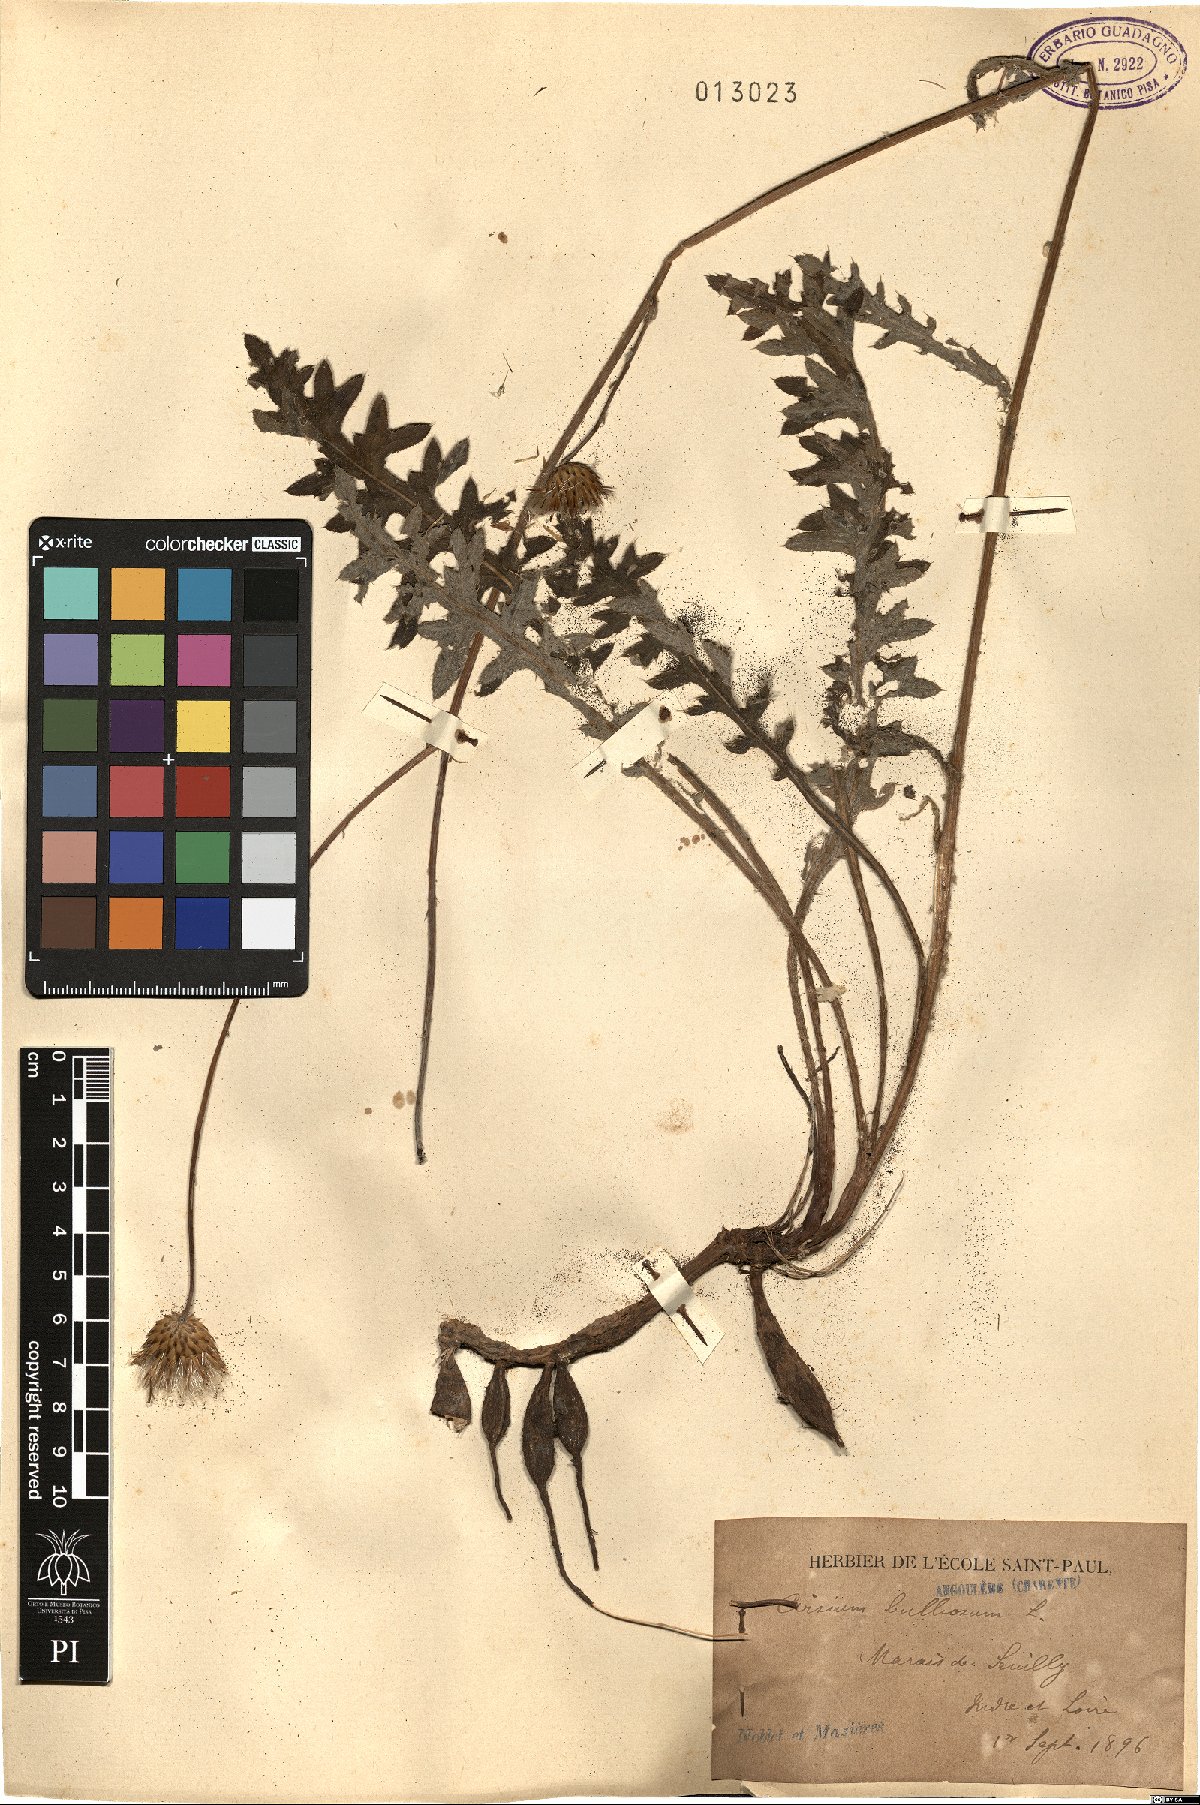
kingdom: Plantae
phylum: Tracheophyta
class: Magnoliopsida
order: Asterales
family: Asteraceae
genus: Cirsium
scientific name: Cirsium tuberosum
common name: Tuberous thistle
